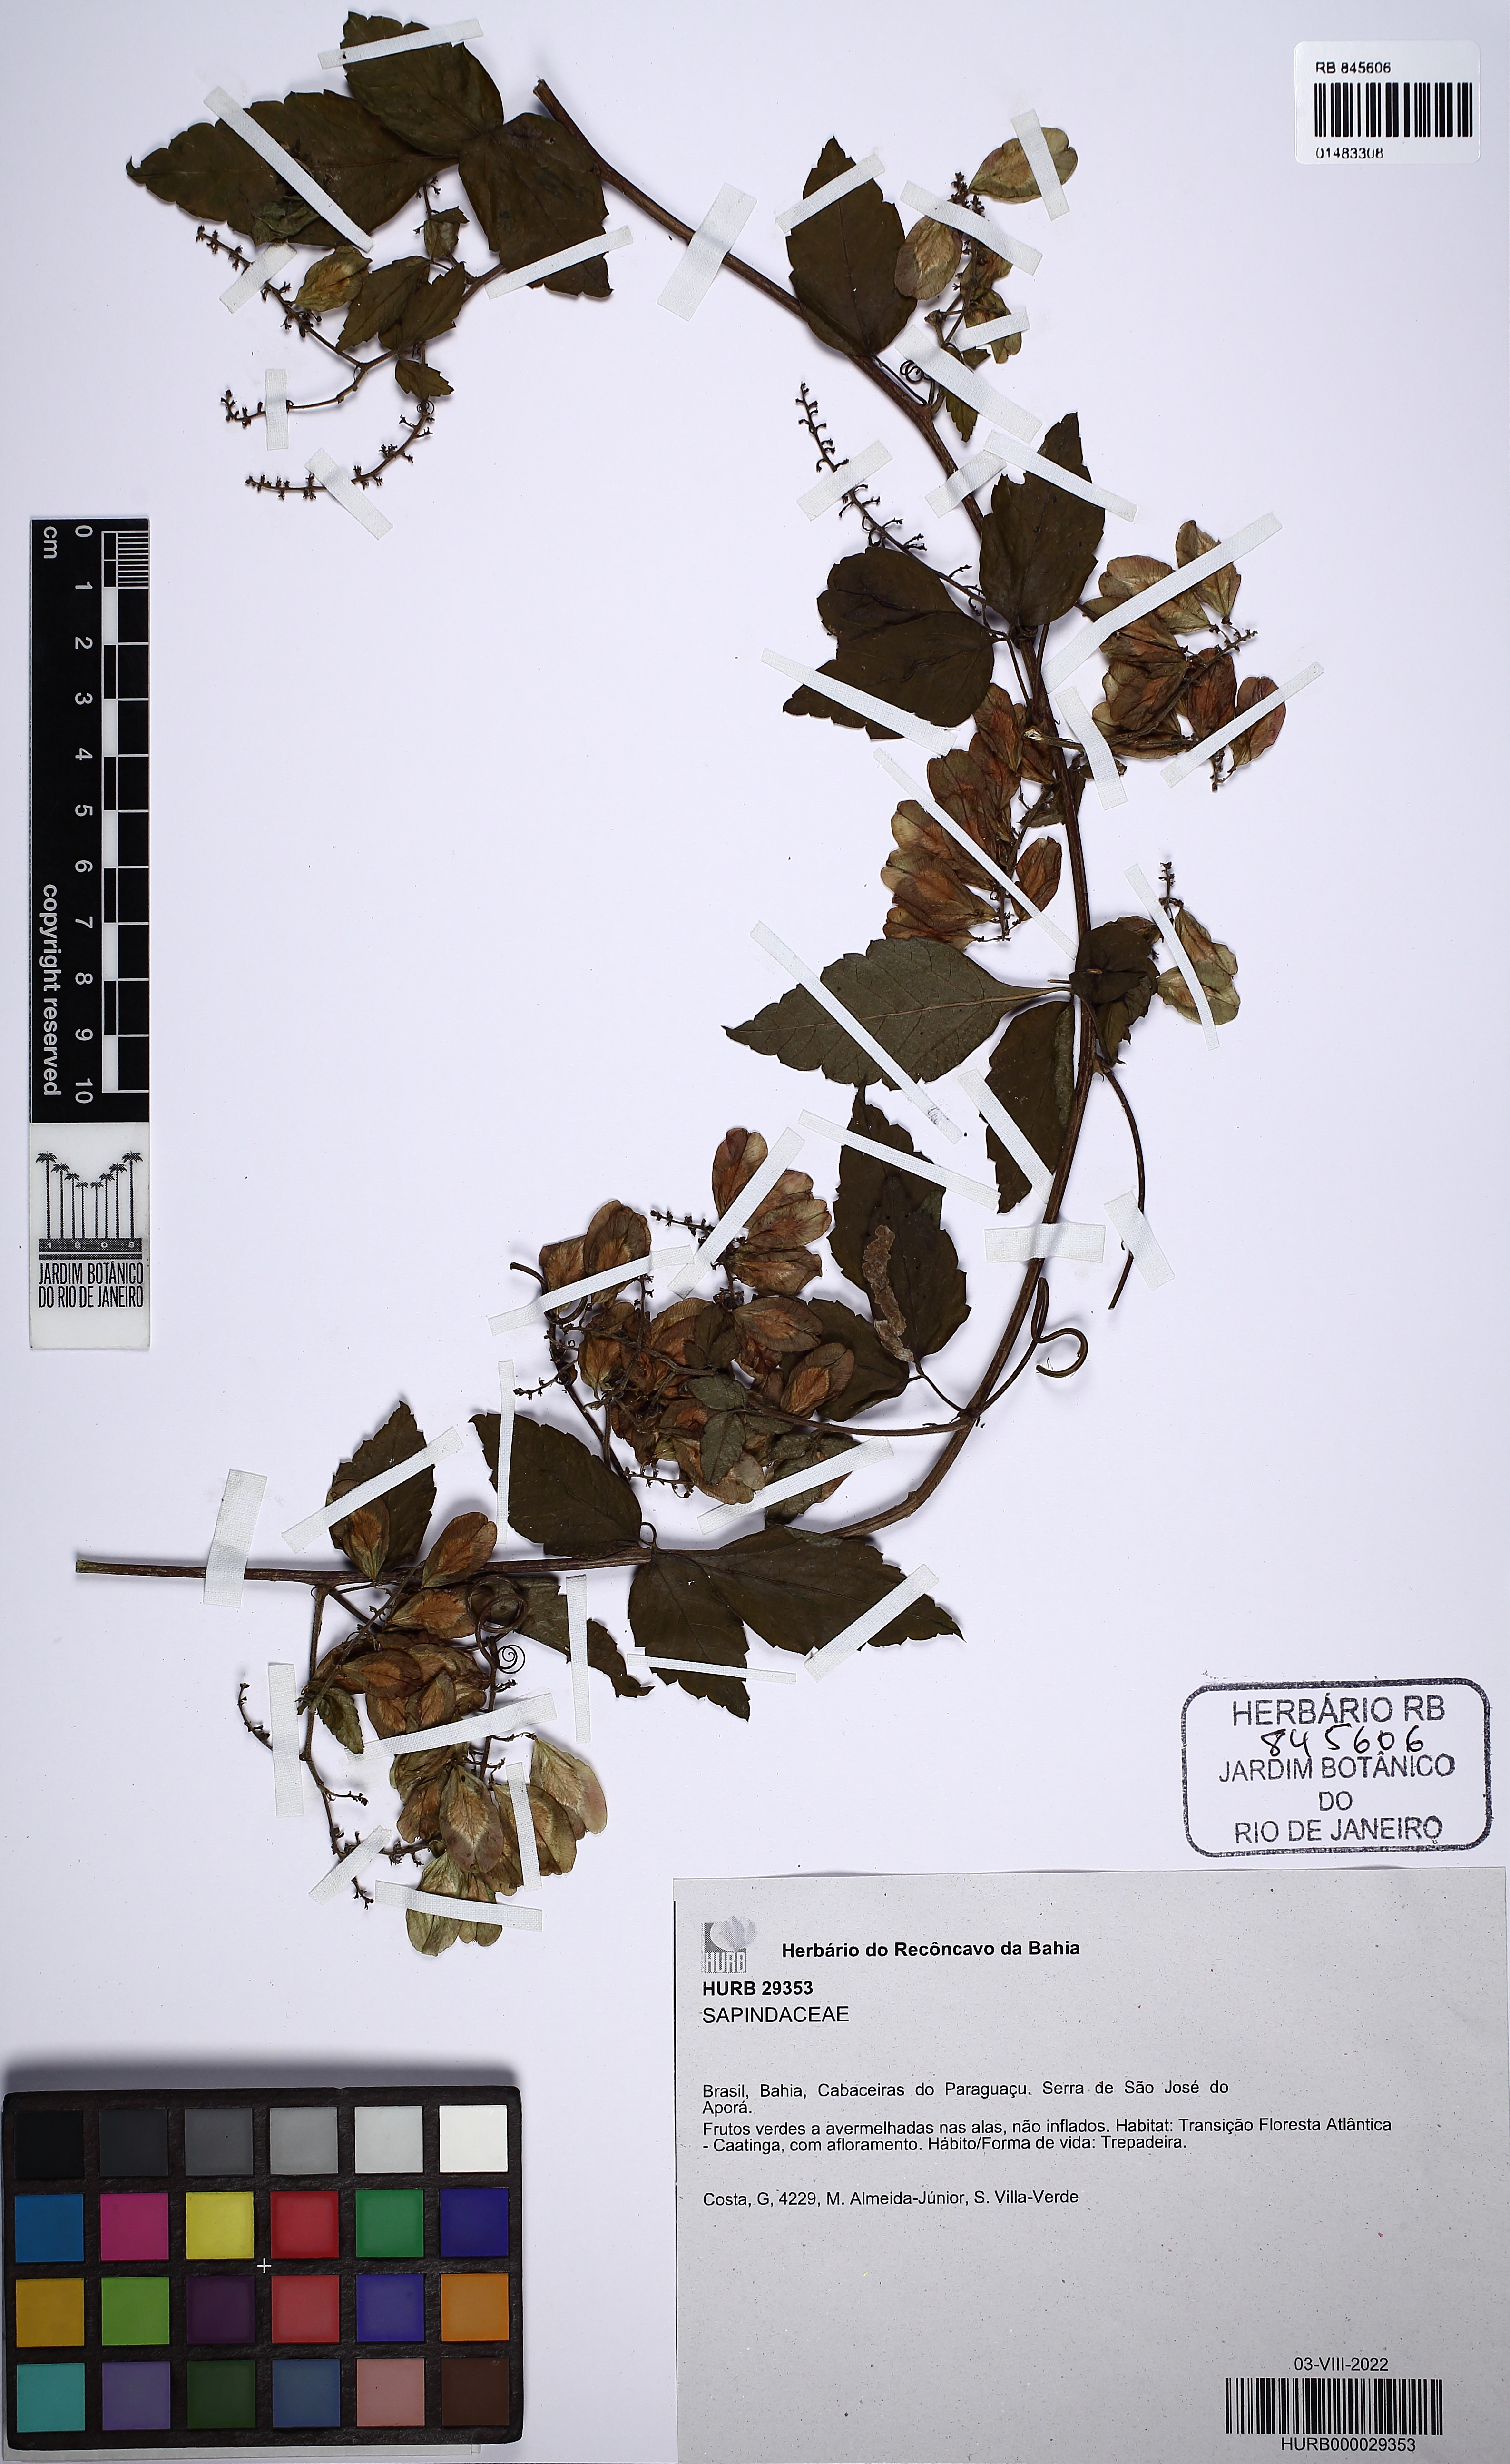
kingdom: Plantae
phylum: Tracheophyta
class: Magnoliopsida
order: Sapindales
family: Sapindaceae
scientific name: Sapindaceae
